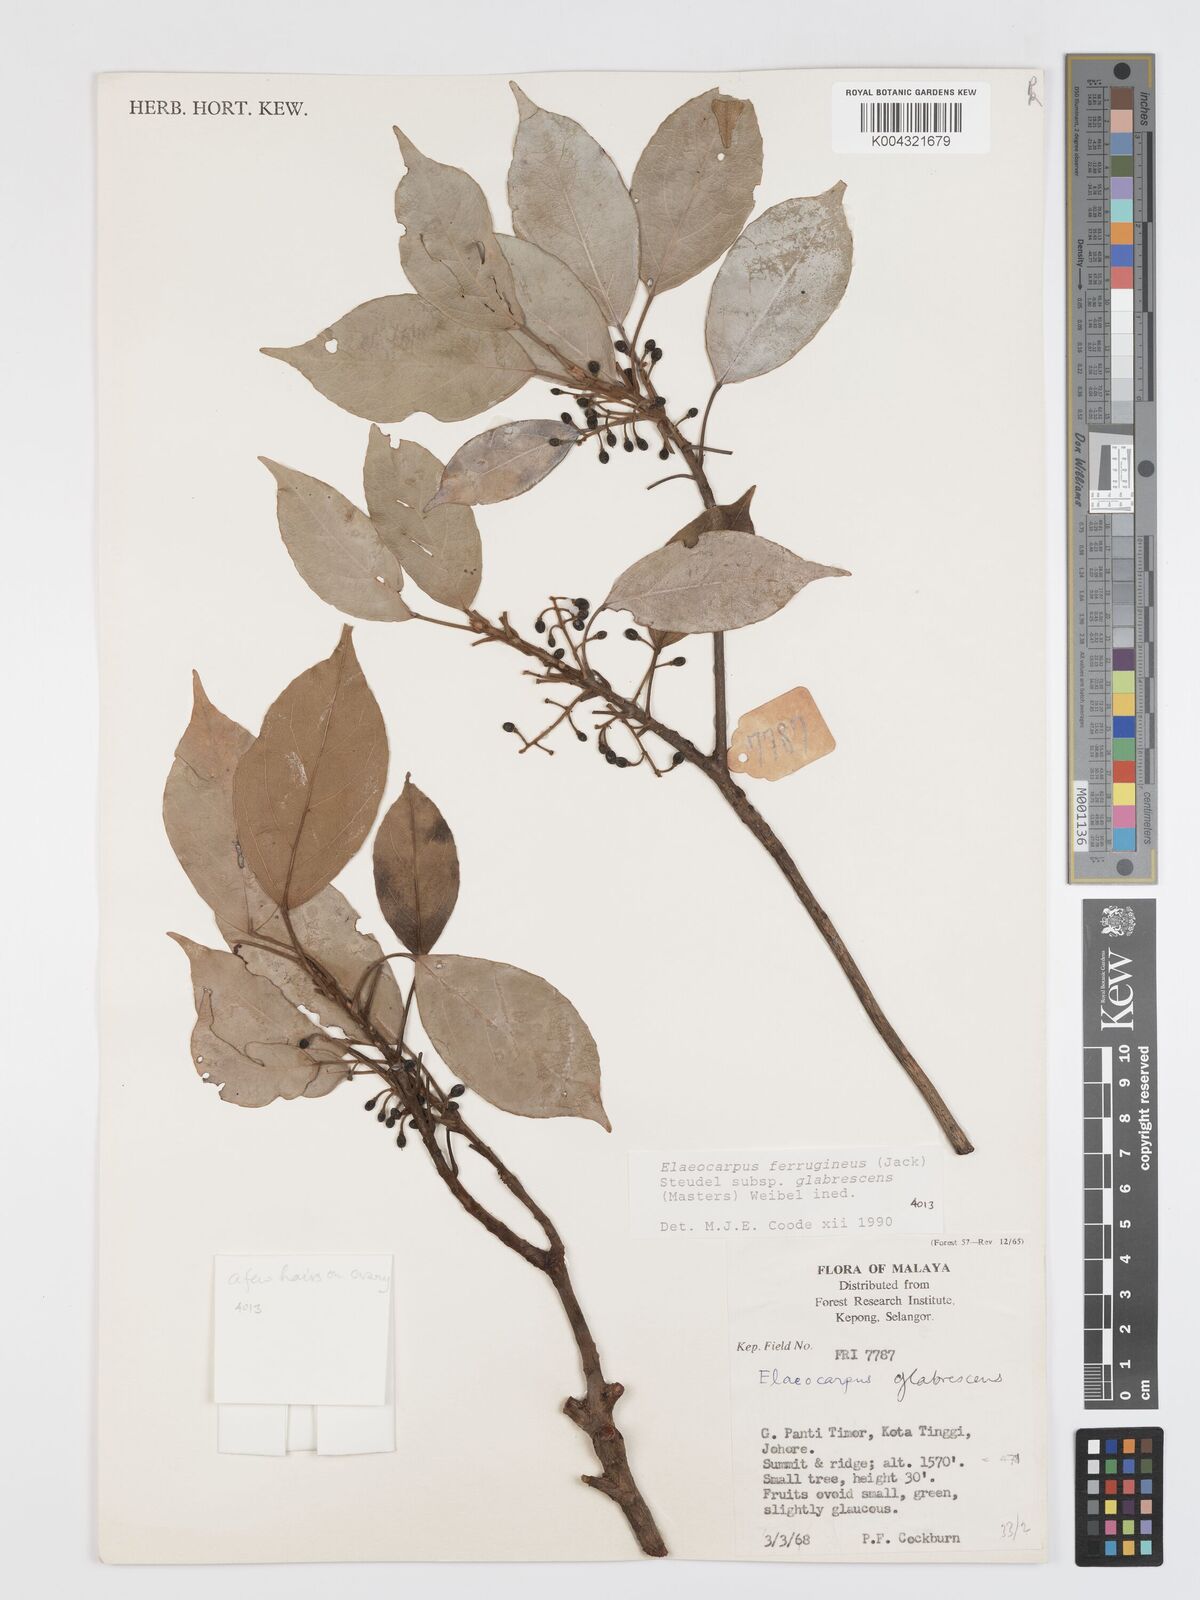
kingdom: Plantae
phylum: Tracheophyta
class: Magnoliopsida
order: Oxalidales
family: Elaeocarpaceae
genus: Elaeocarpus
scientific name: Elaeocarpus ferrugineus
